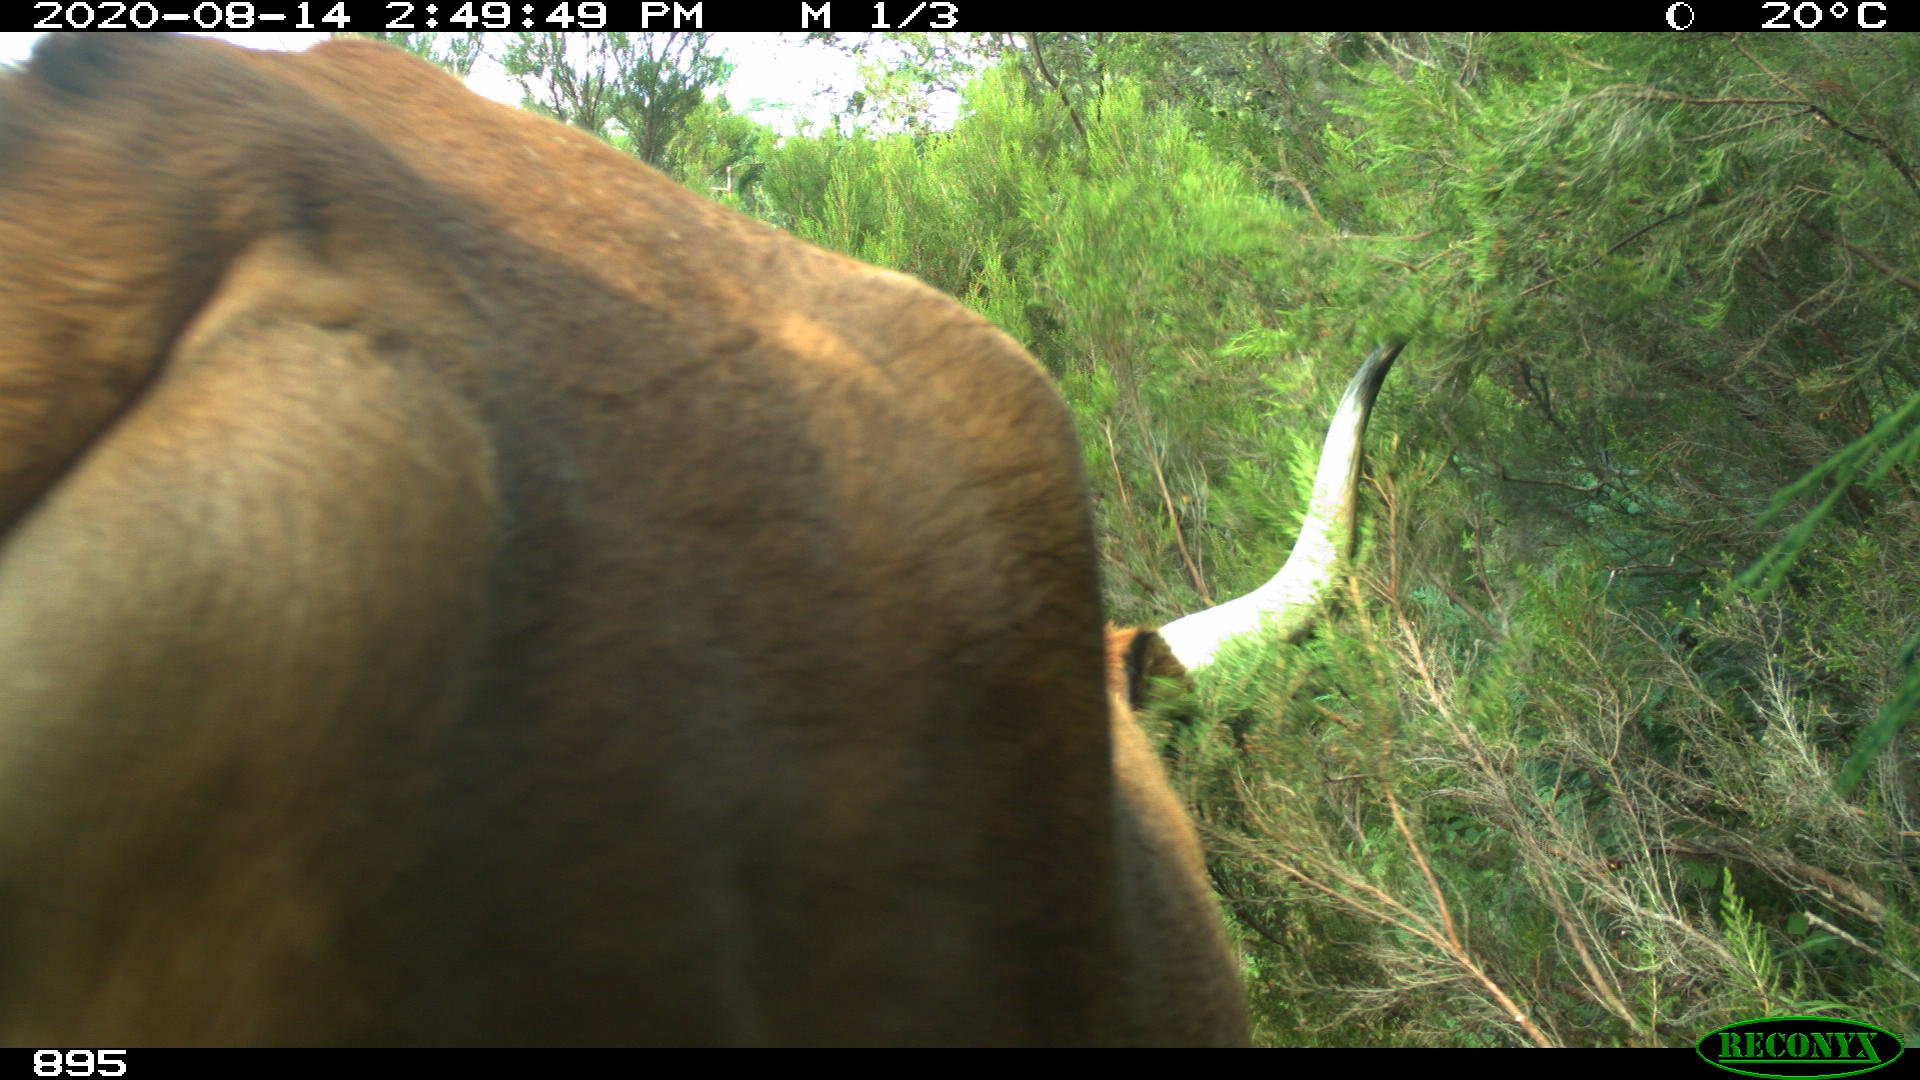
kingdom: Animalia
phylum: Chordata
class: Mammalia
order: Artiodactyla
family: Bovidae
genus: Bos
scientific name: Bos taurus
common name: Domesticated cattle
